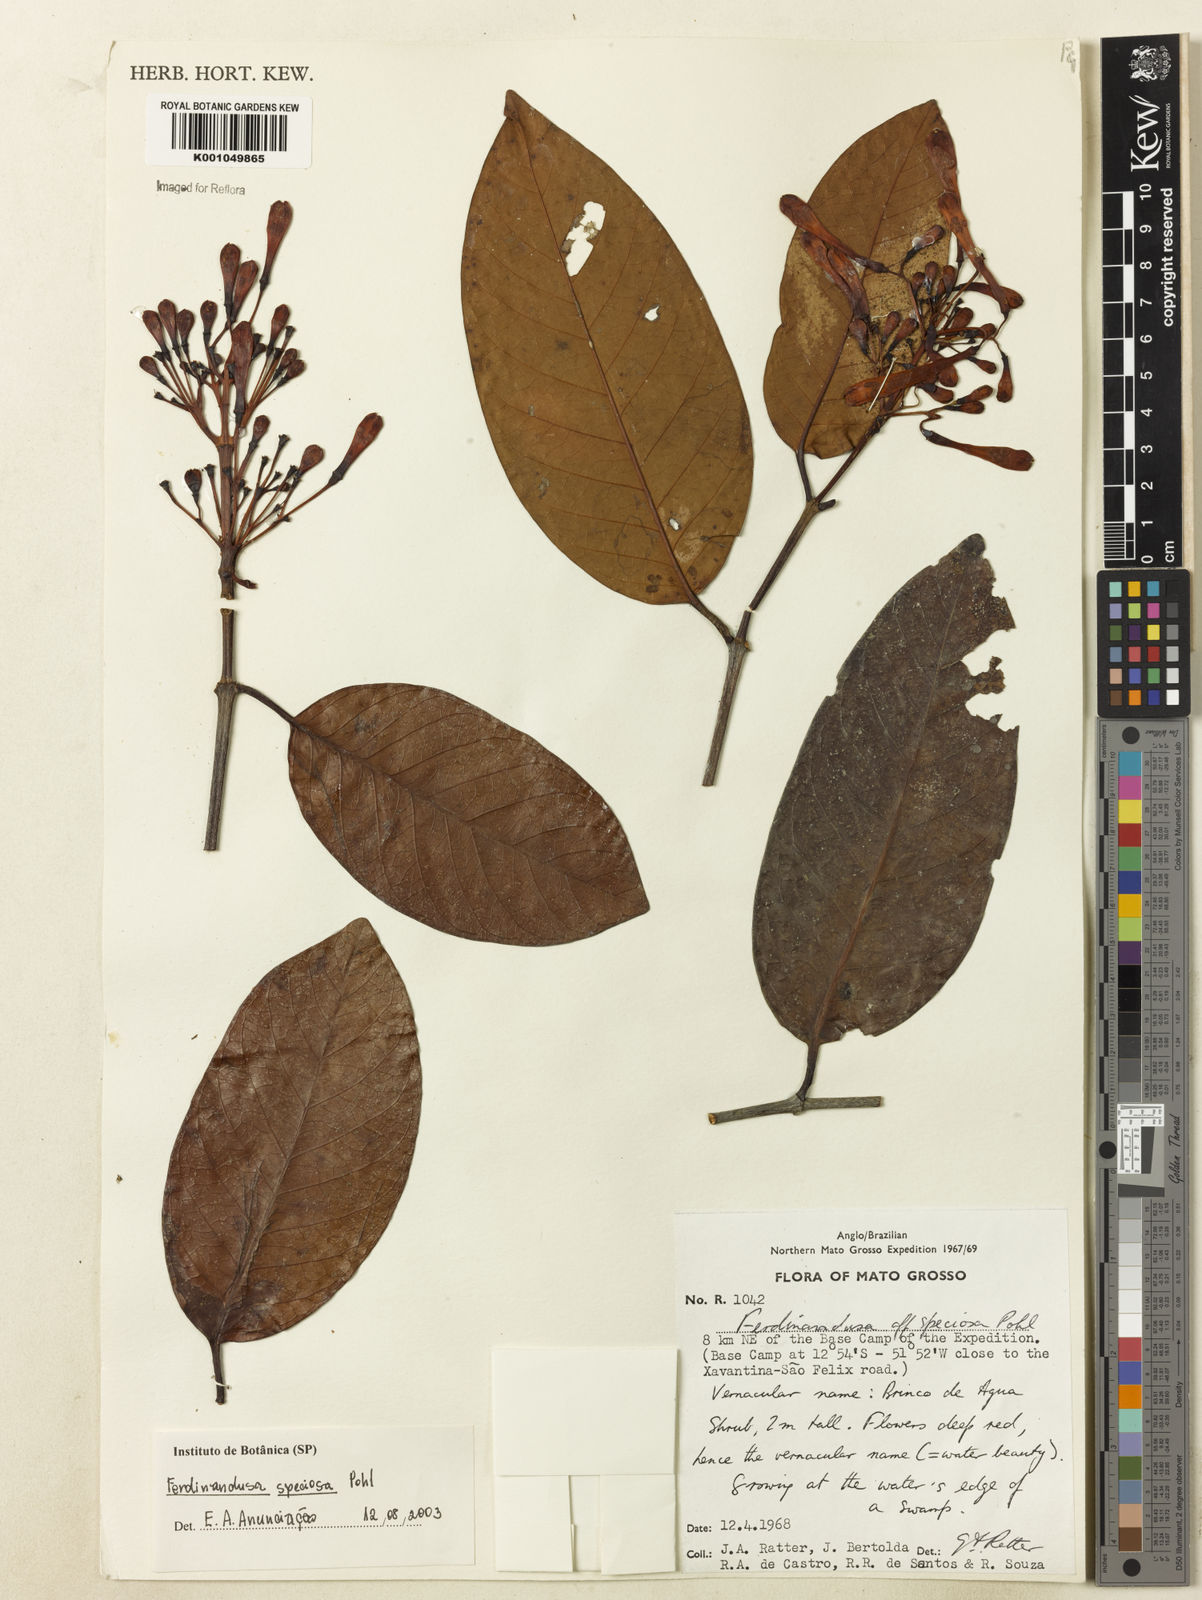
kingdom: Plantae
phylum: Tracheophyta
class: Magnoliopsida
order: Gentianales
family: Rubiaceae
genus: Ferdinandusa
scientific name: Ferdinandusa speciosa
